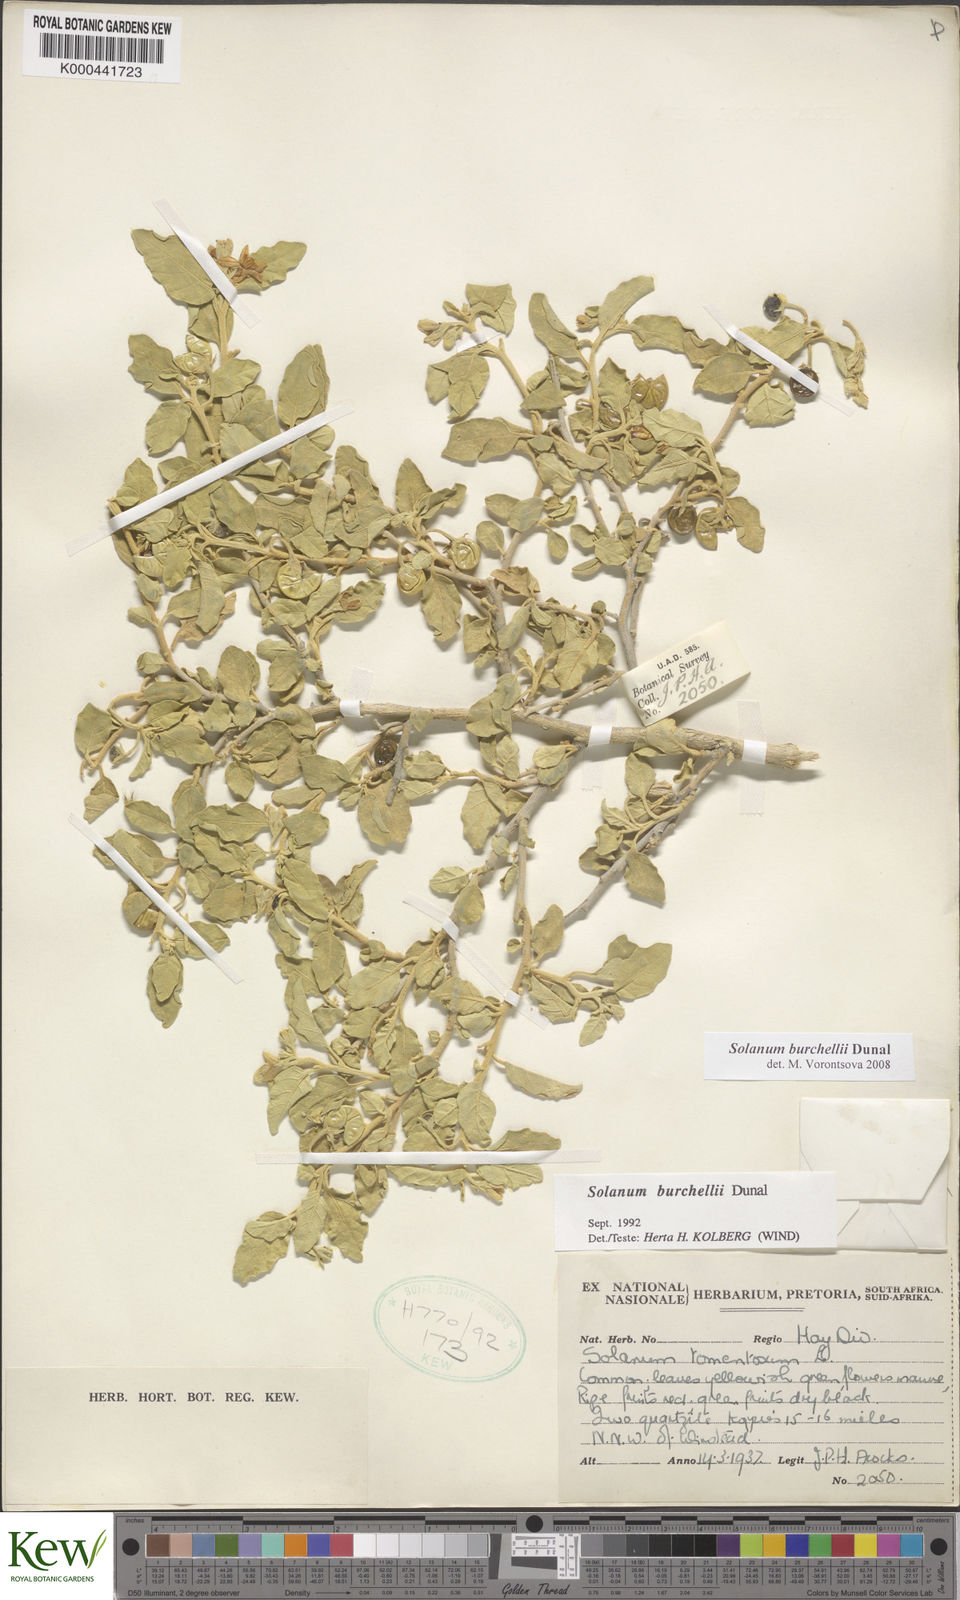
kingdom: Plantae
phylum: Tracheophyta
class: Magnoliopsida
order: Solanales
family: Solanaceae
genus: Solanum
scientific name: Solanum burchellii
